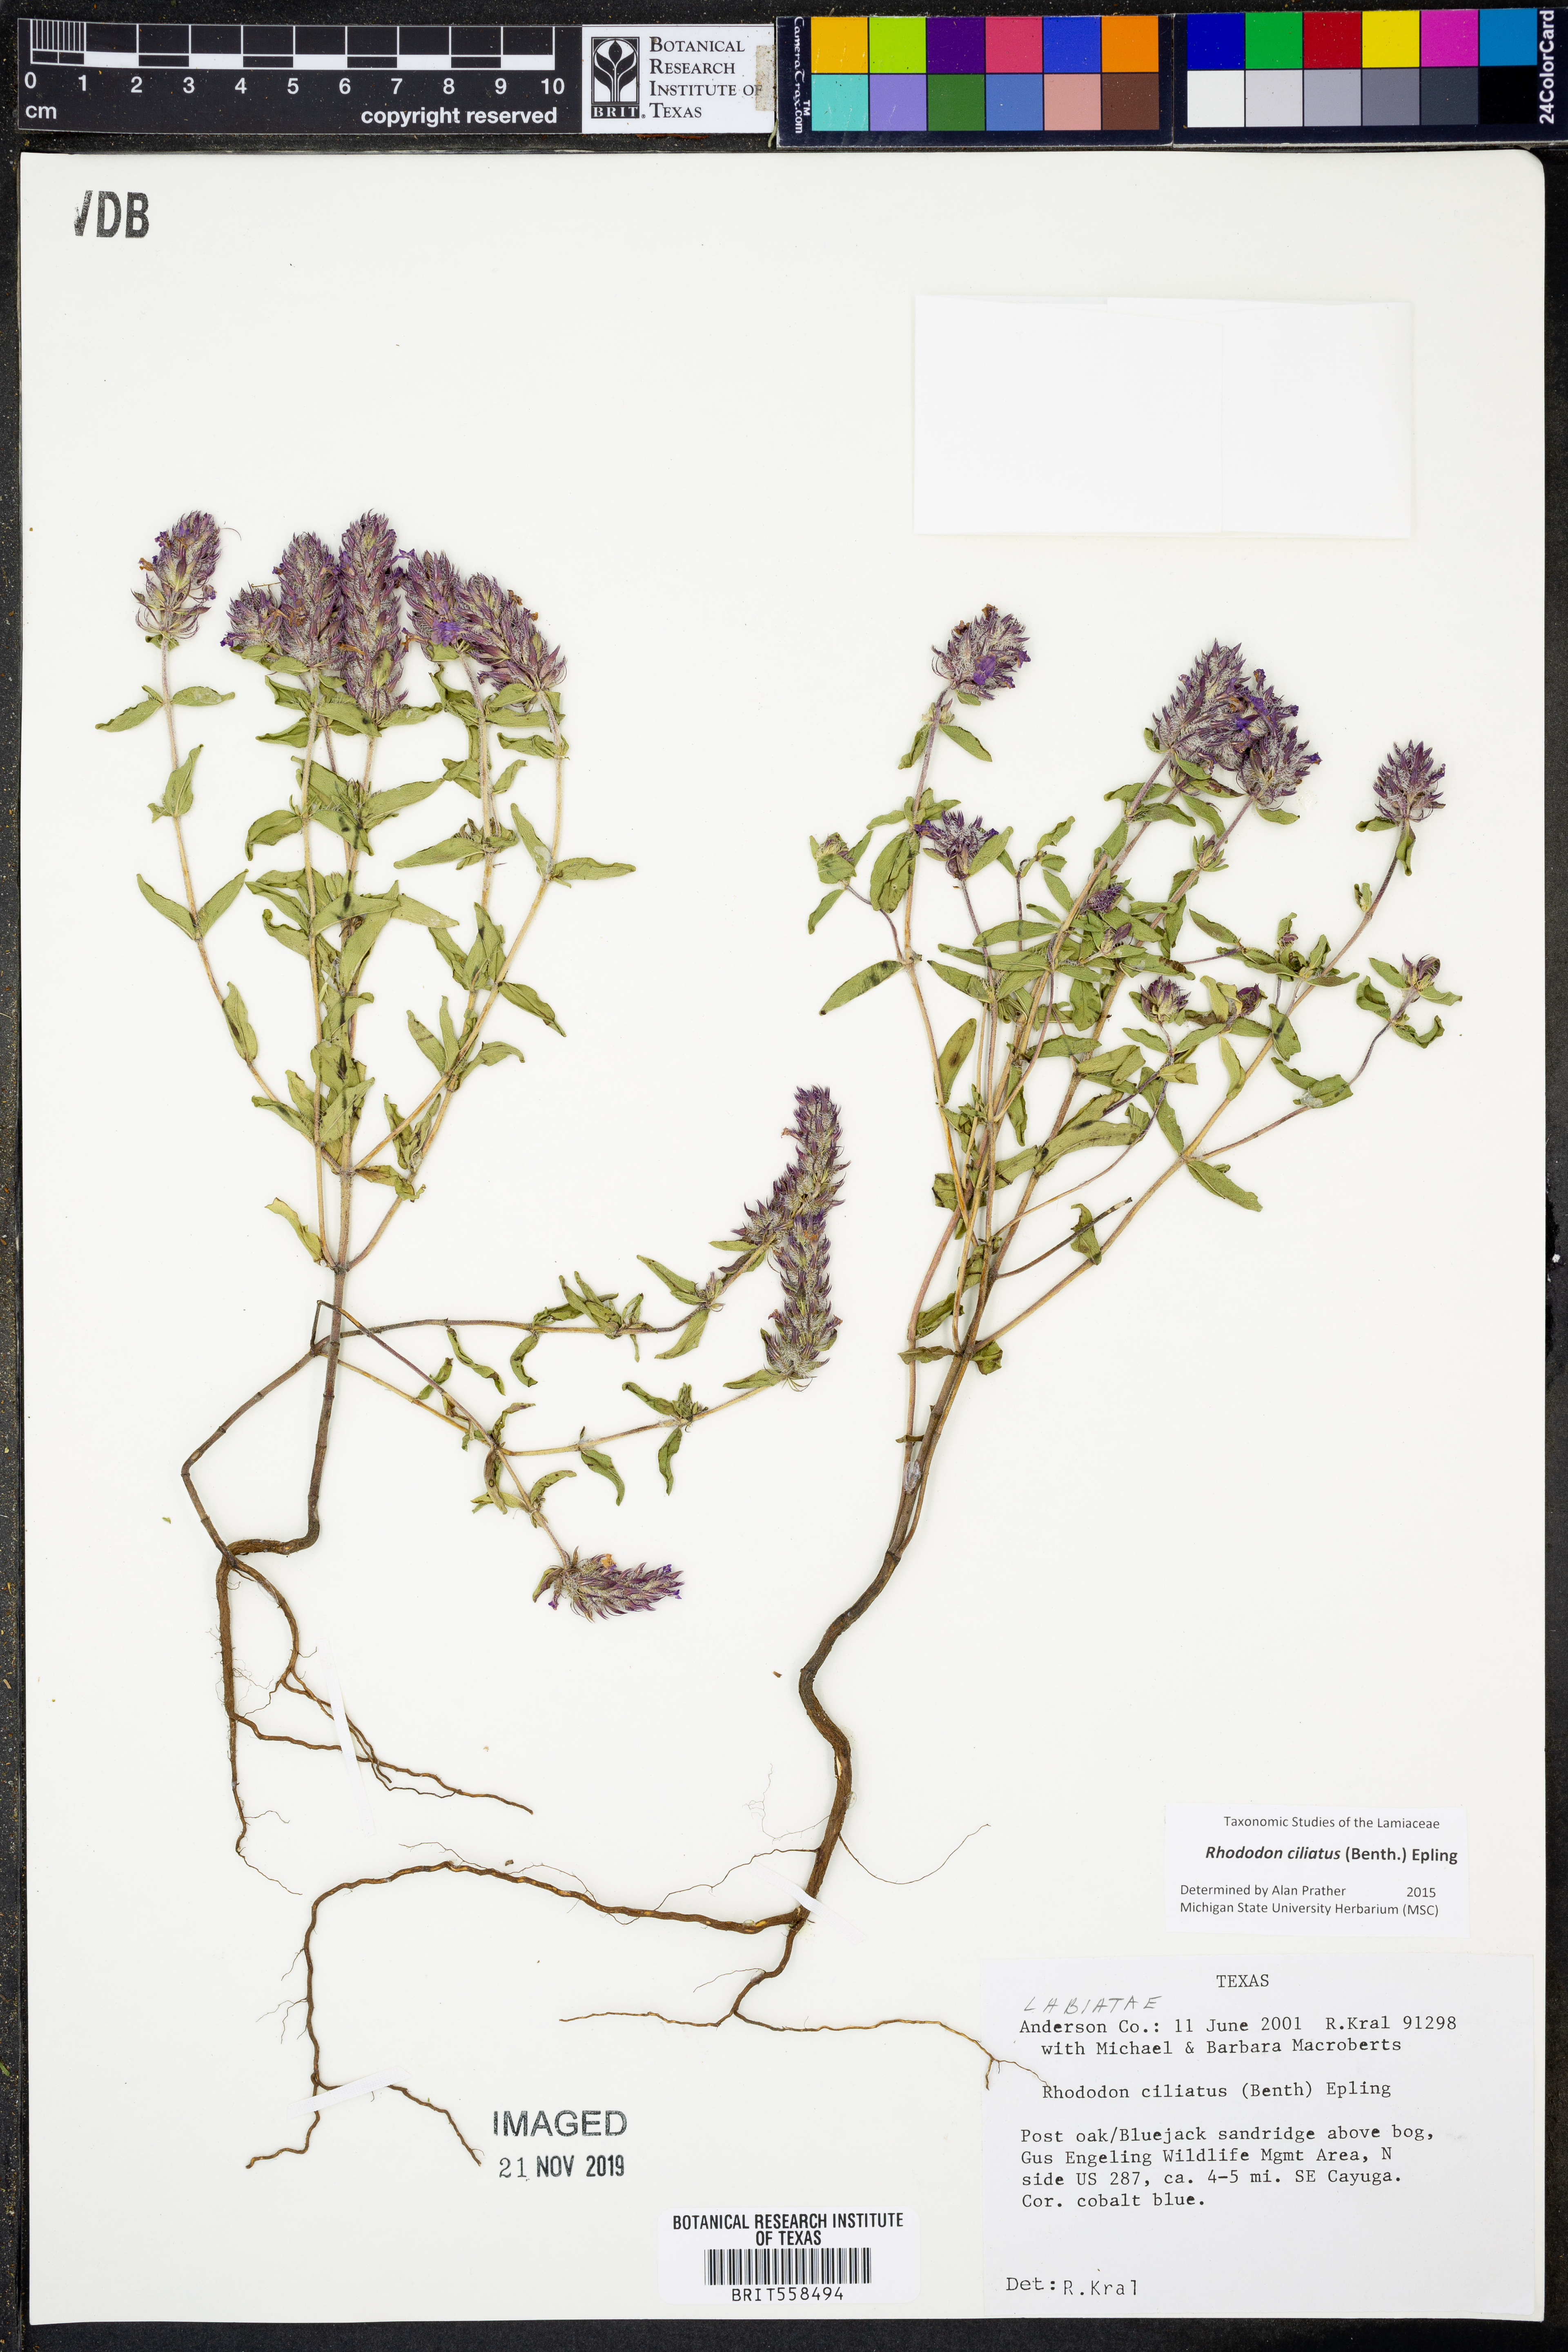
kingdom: Plantae
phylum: Tracheophyta
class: Magnoliopsida
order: Lamiales
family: Lamiaceae
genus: Rhododon
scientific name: Rhododon ciliatus
